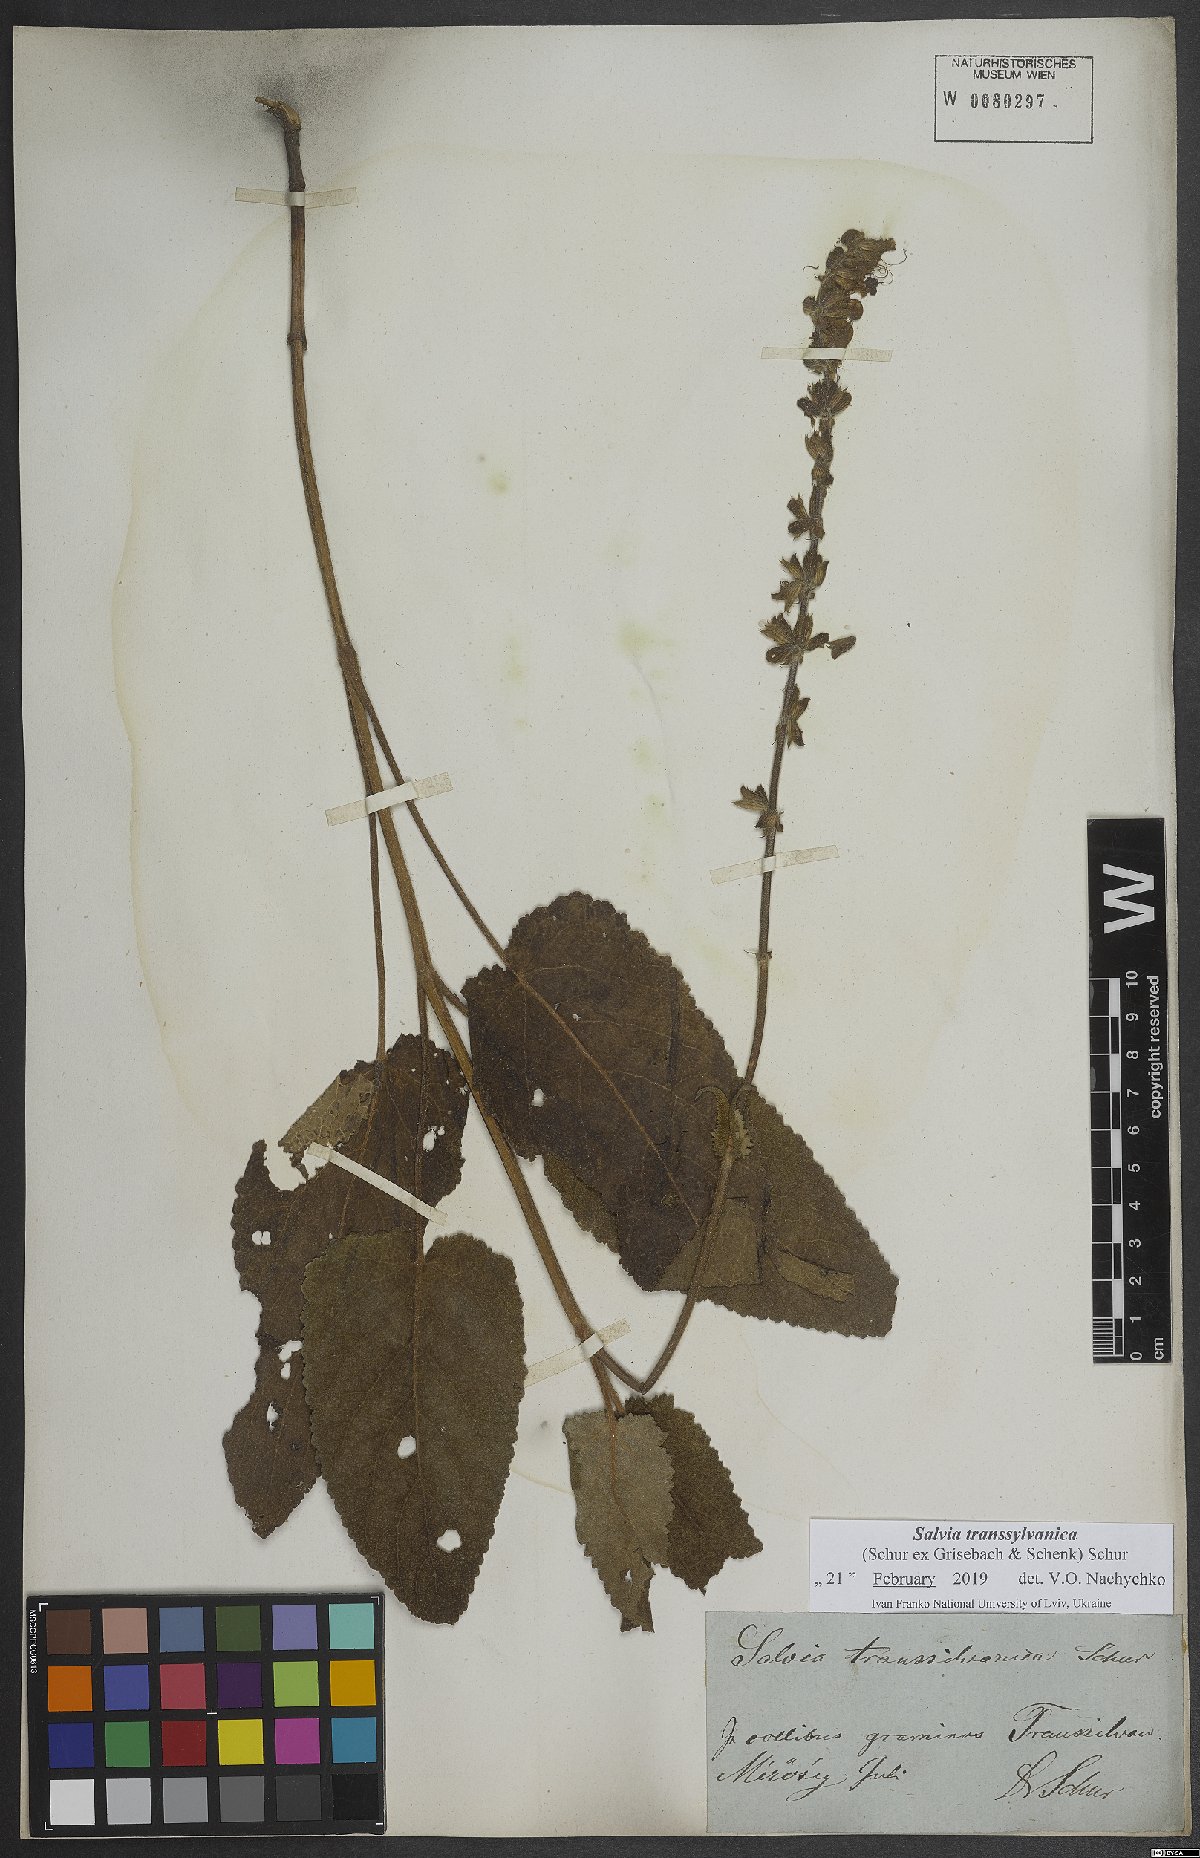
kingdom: Plantae
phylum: Tracheophyta
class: Magnoliopsida
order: Lamiales
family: Lamiaceae
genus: Salvia
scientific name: Salvia transsylvanica
